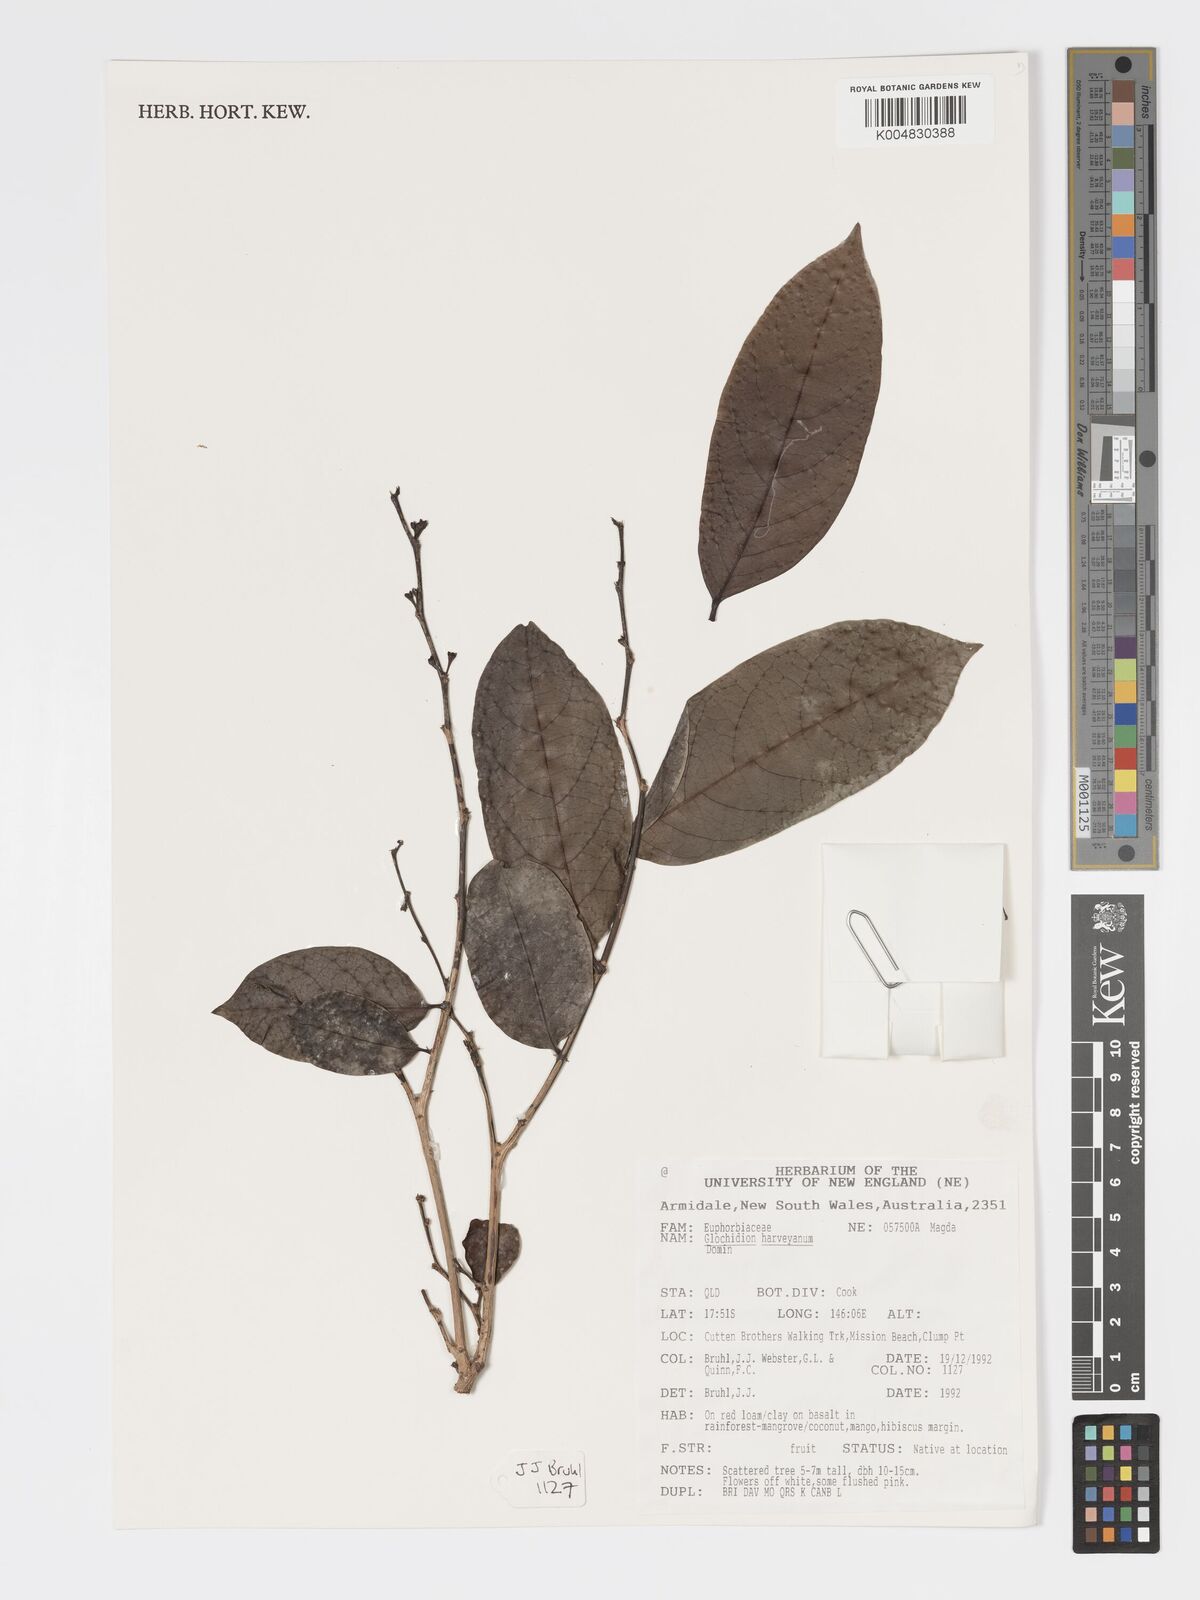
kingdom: Plantae
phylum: Tracheophyta
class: Magnoliopsida
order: Malpighiales
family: Phyllanthaceae
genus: Glochidion
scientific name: Glochidion harveyanum
